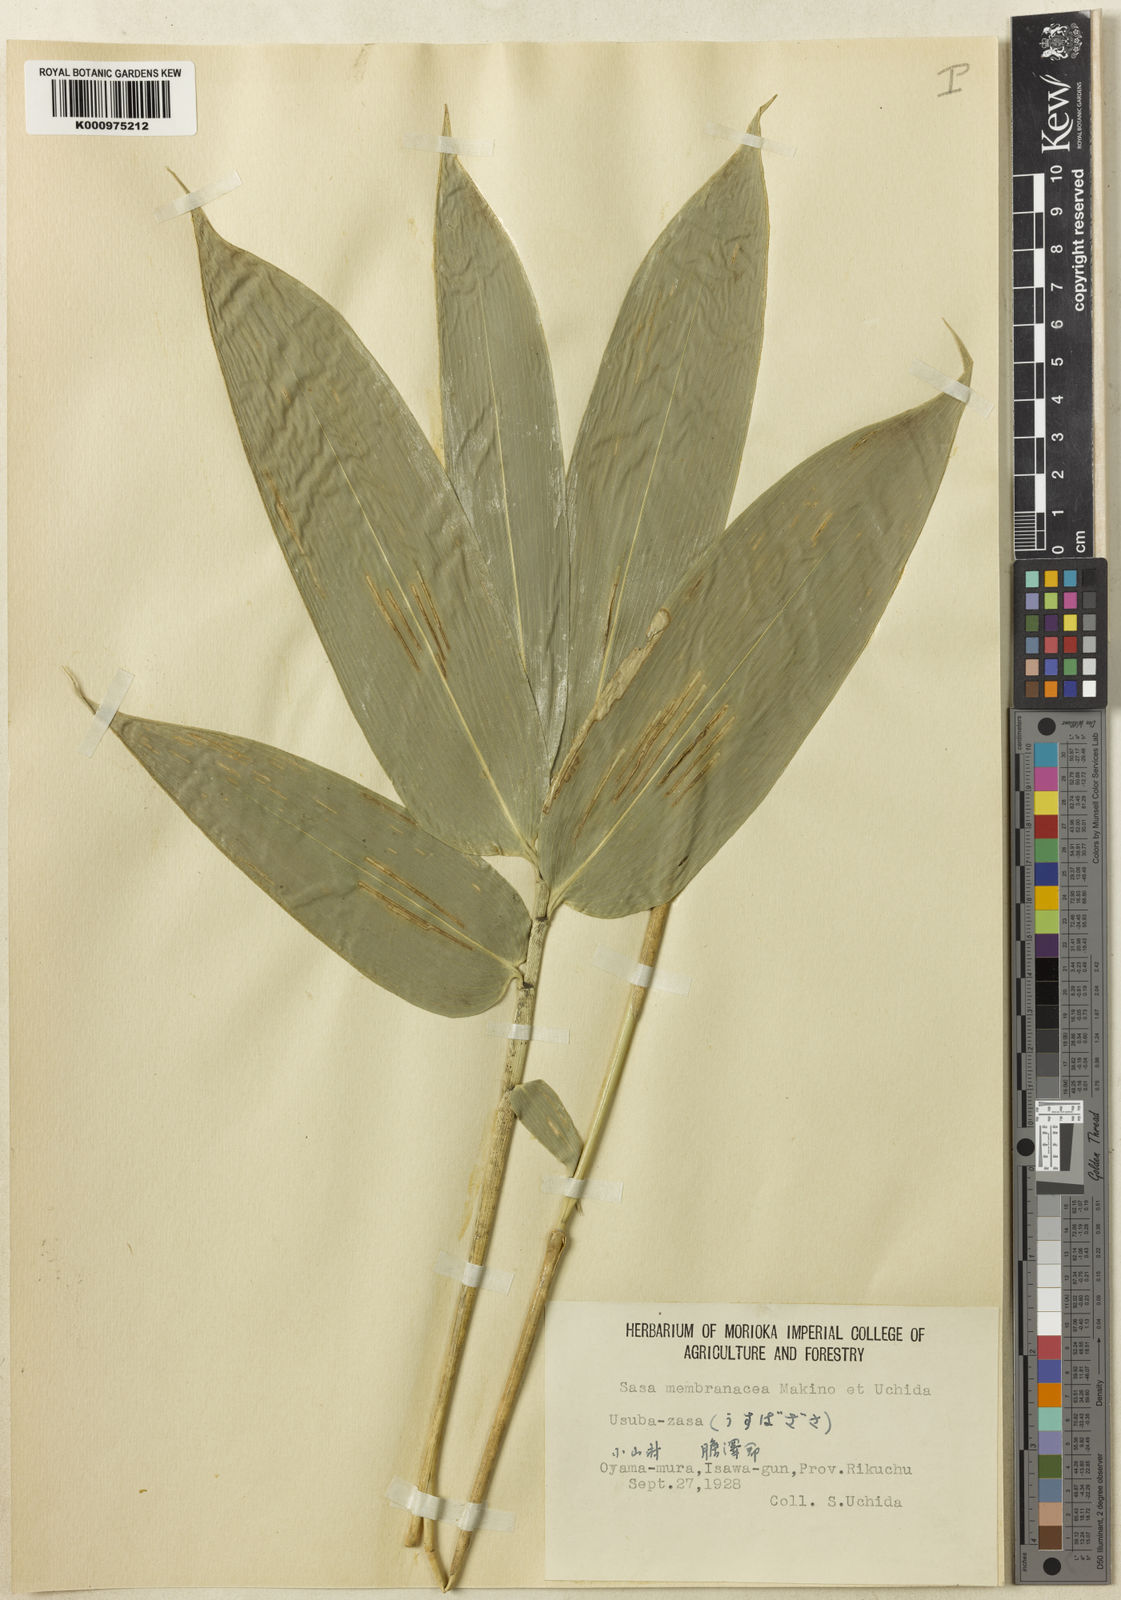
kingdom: Plantae
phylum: Tracheophyta
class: Liliopsida
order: Poales
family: Poaceae
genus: Sasa
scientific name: Sasa septentrionalis
